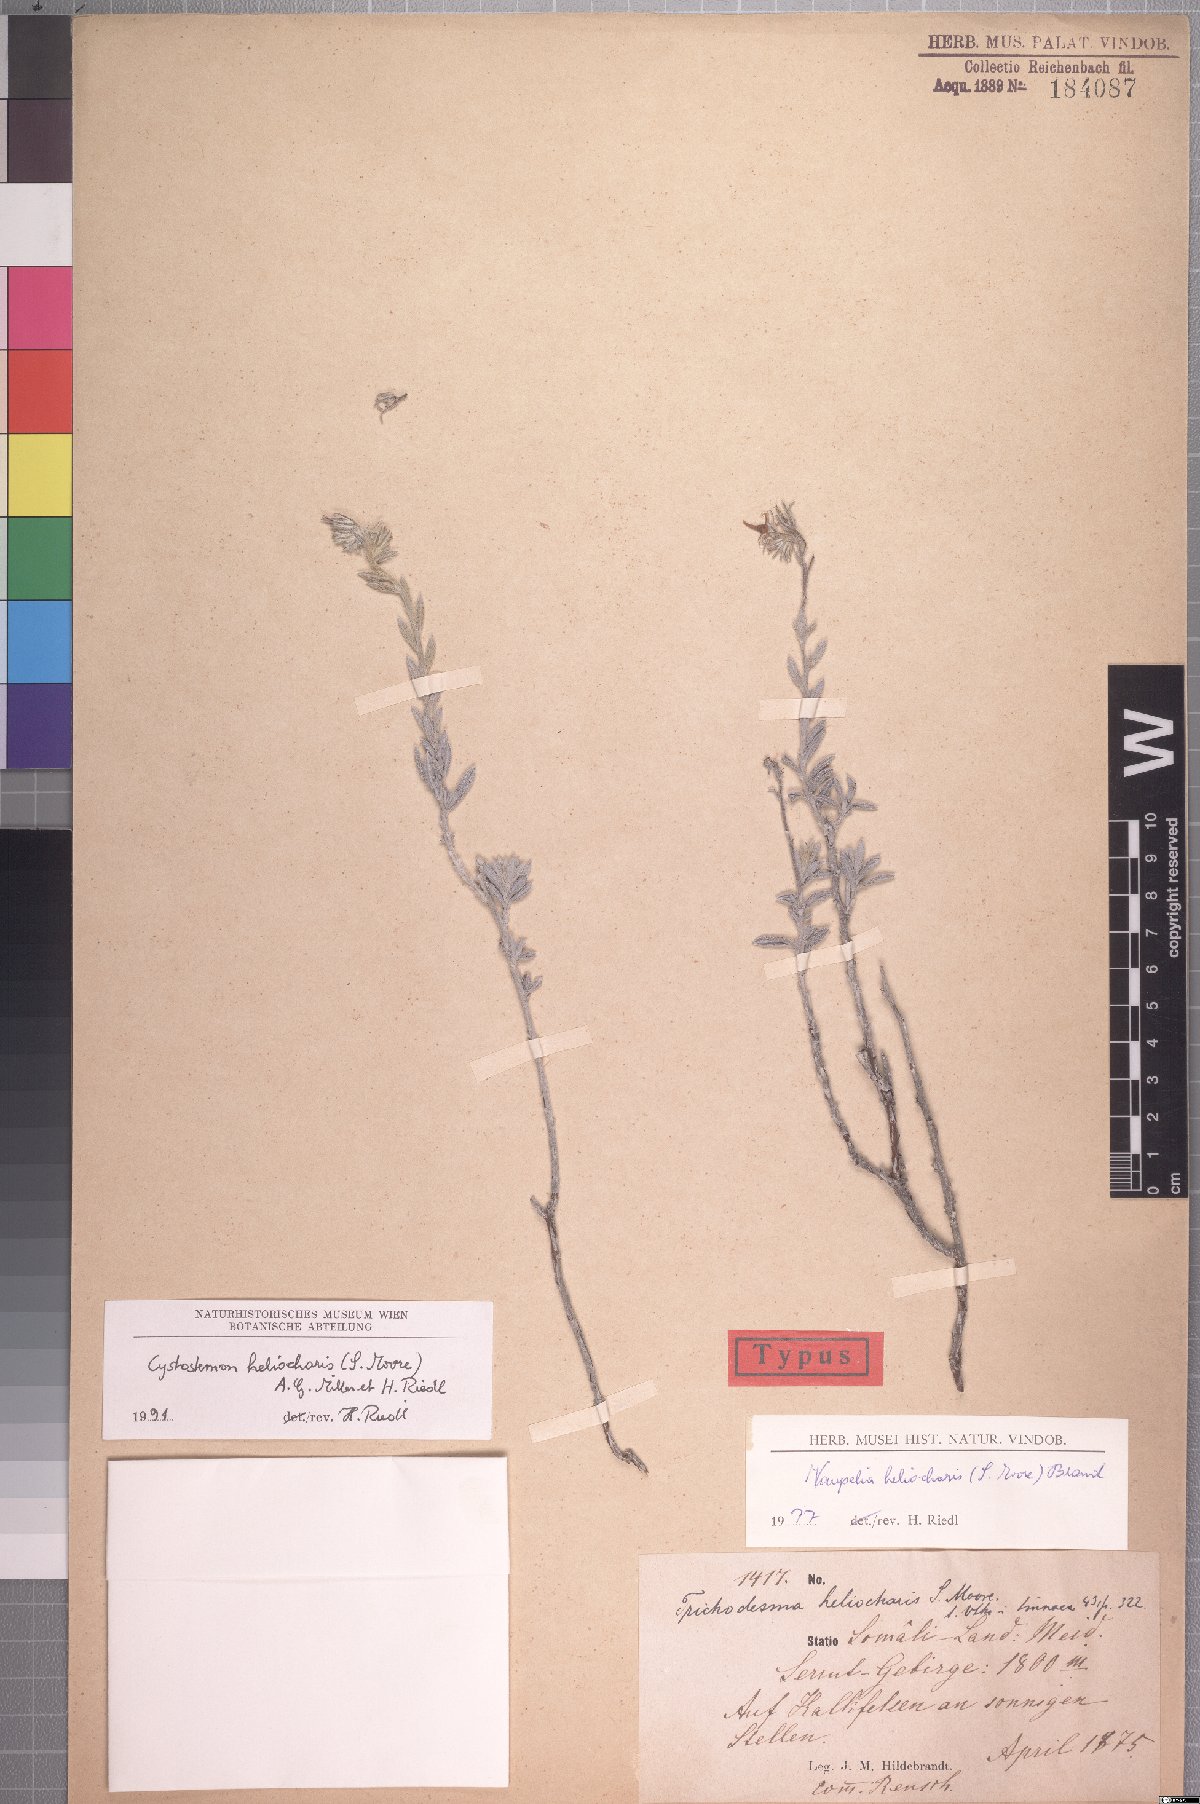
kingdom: Plantae
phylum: Tracheophyta
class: Magnoliopsida
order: Boraginales
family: Boraginaceae
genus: Cystostemon
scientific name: Cystostemon heliocharis
